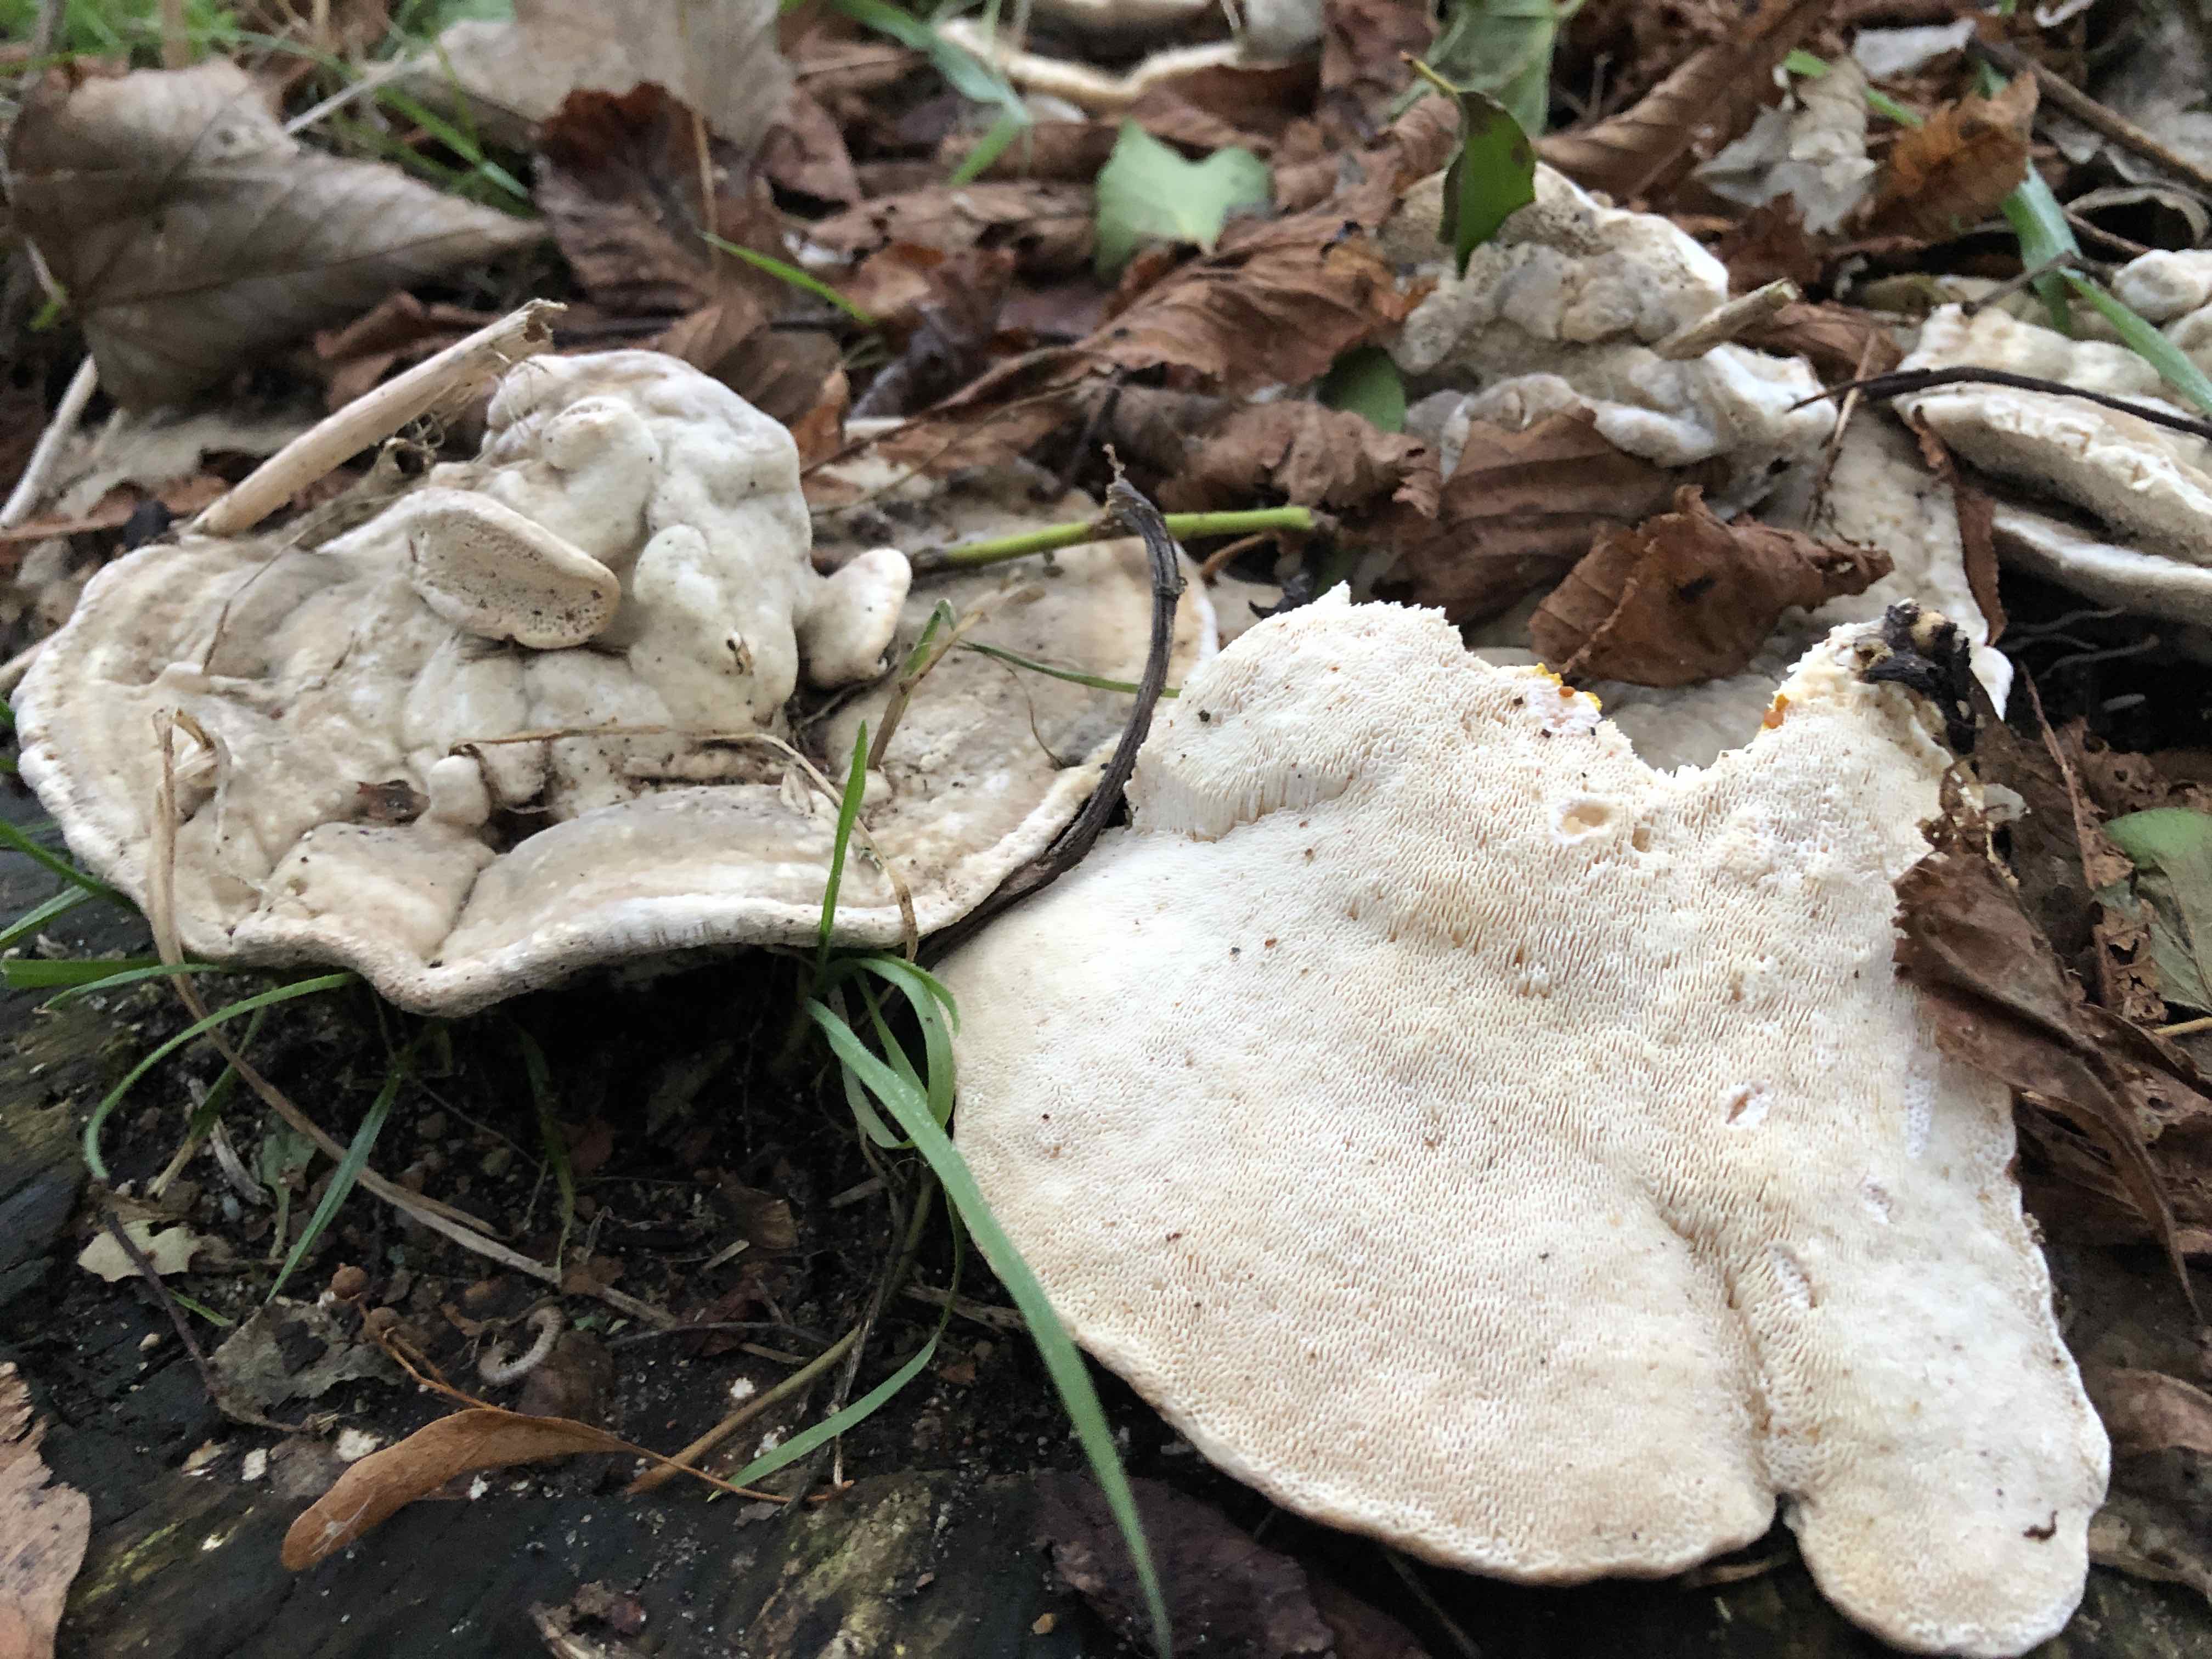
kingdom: Fungi
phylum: Basidiomycota
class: Agaricomycetes
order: Polyporales
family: Polyporaceae
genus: Trametes
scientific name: Trametes gibbosa
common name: puklet læderporesvamp
